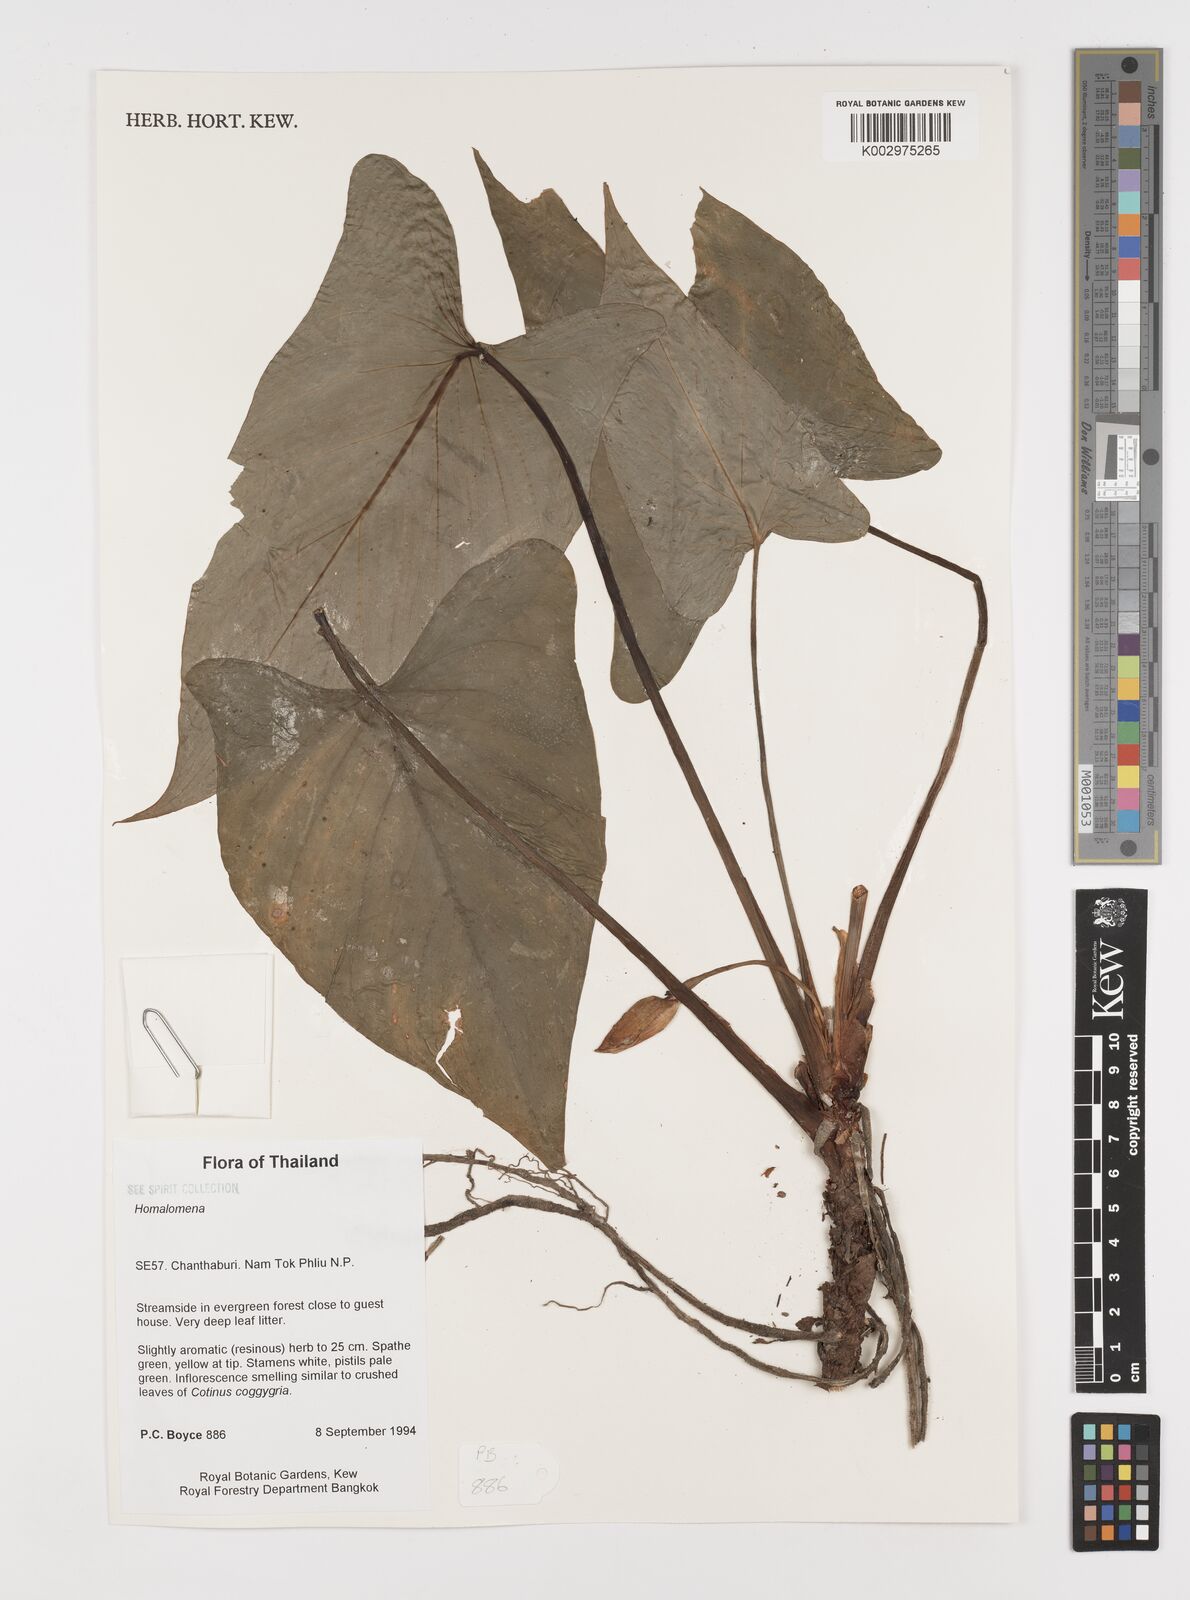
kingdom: Plantae
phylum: Tracheophyta
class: Liliopsida
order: Alismatales
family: Araceae
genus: Homalomena
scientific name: Homalomena
